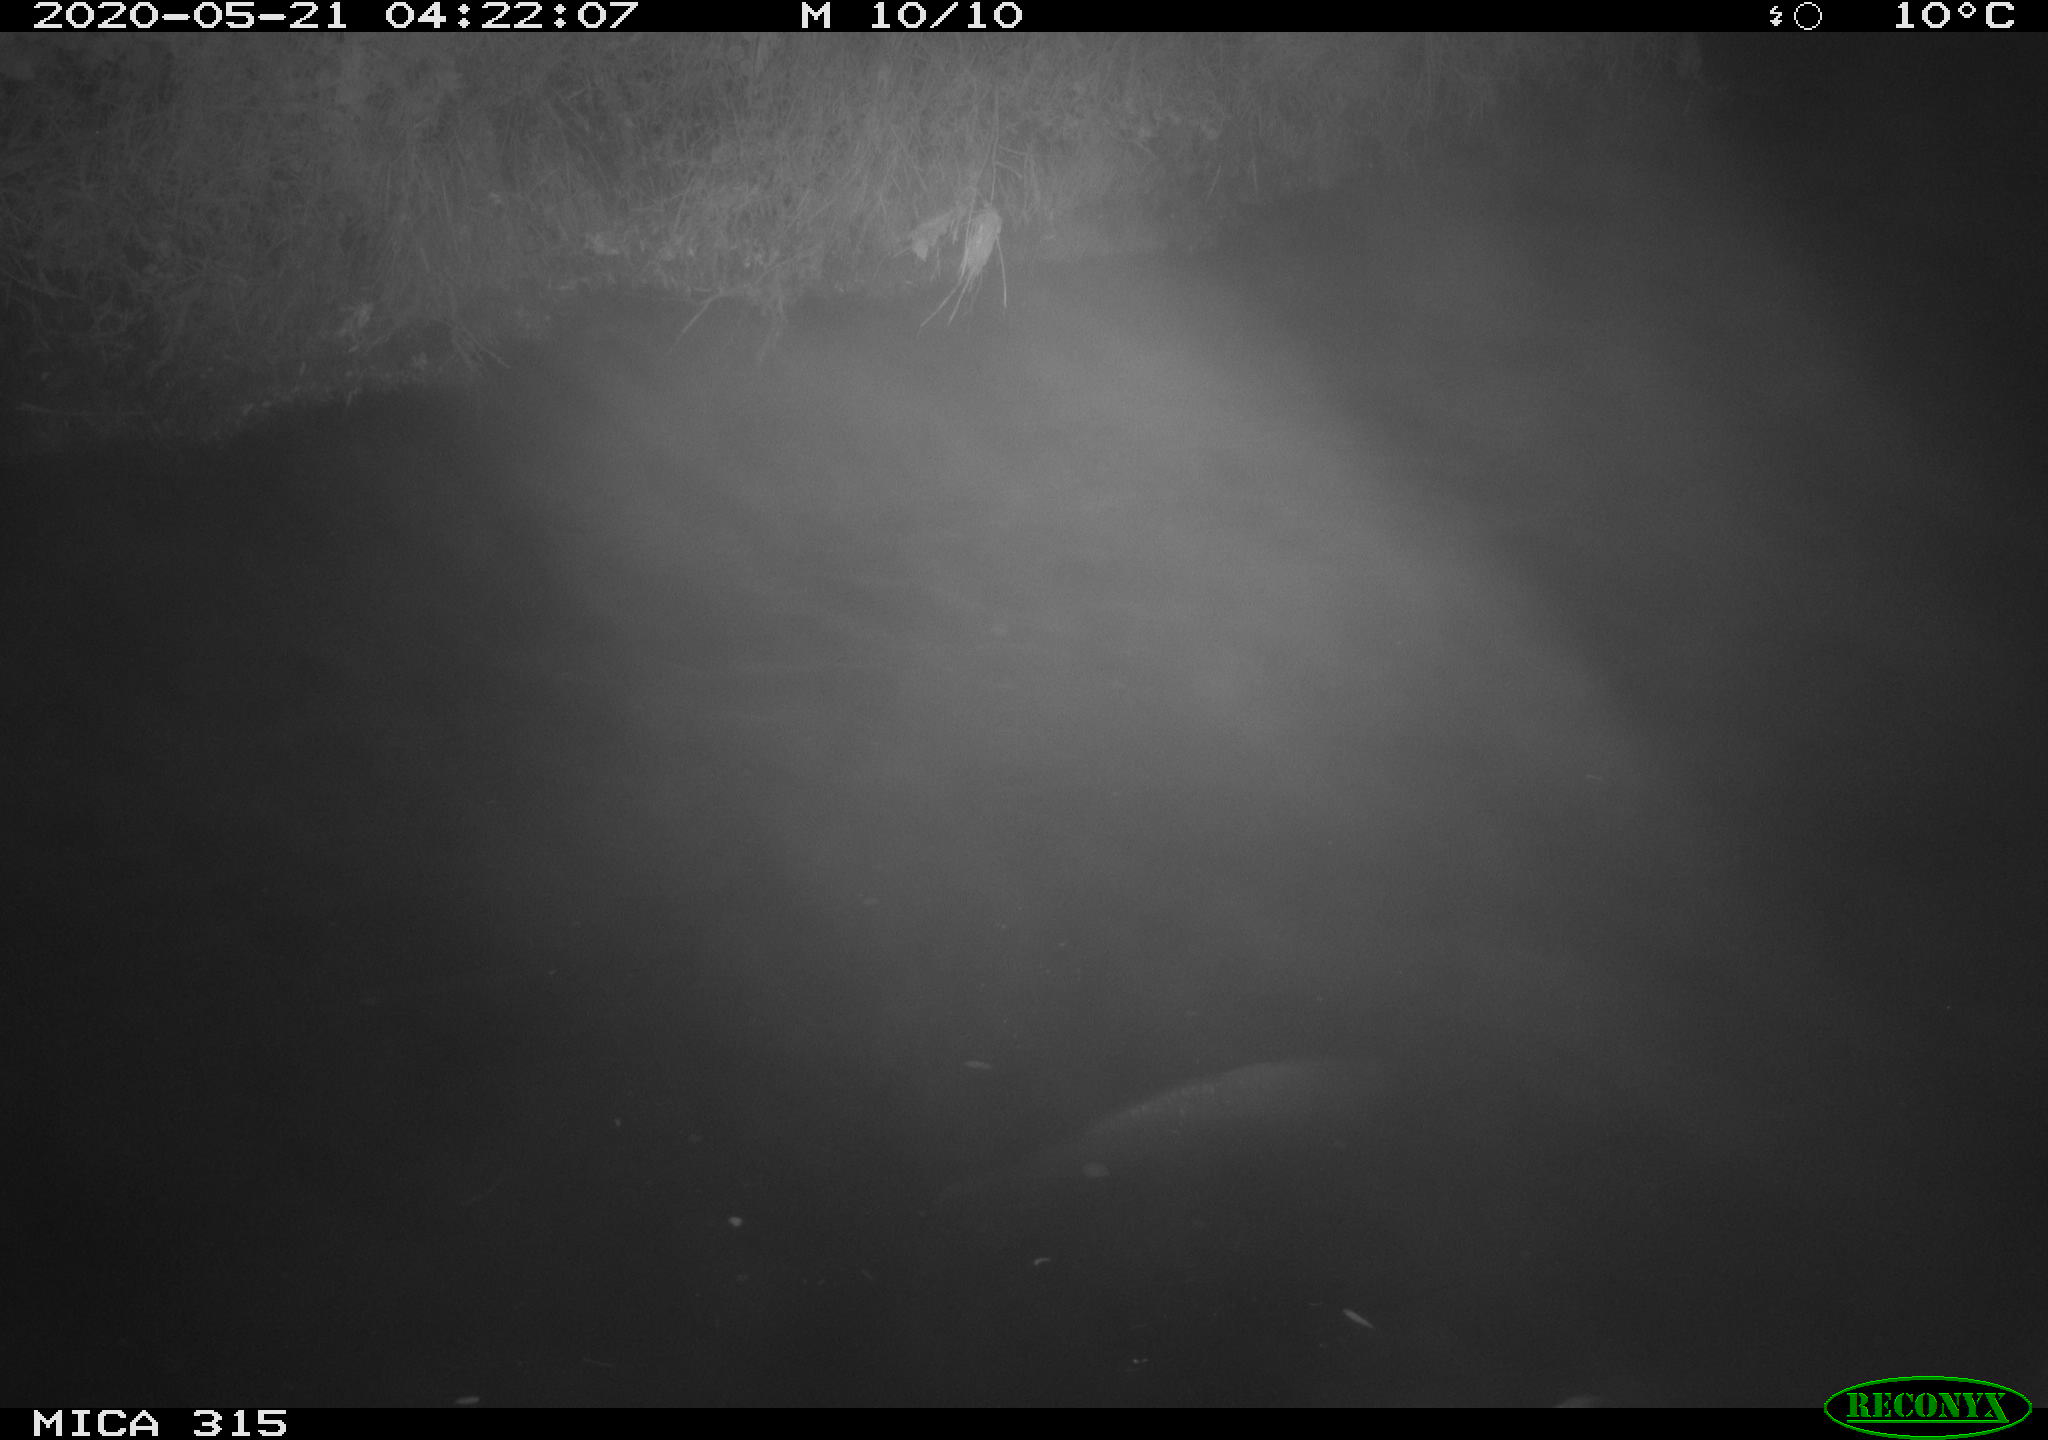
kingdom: Animalia
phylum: Chordata
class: Aves
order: Anseriformes
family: Anatidae
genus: Anas
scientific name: Anas platyrhynchos
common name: Mallard
